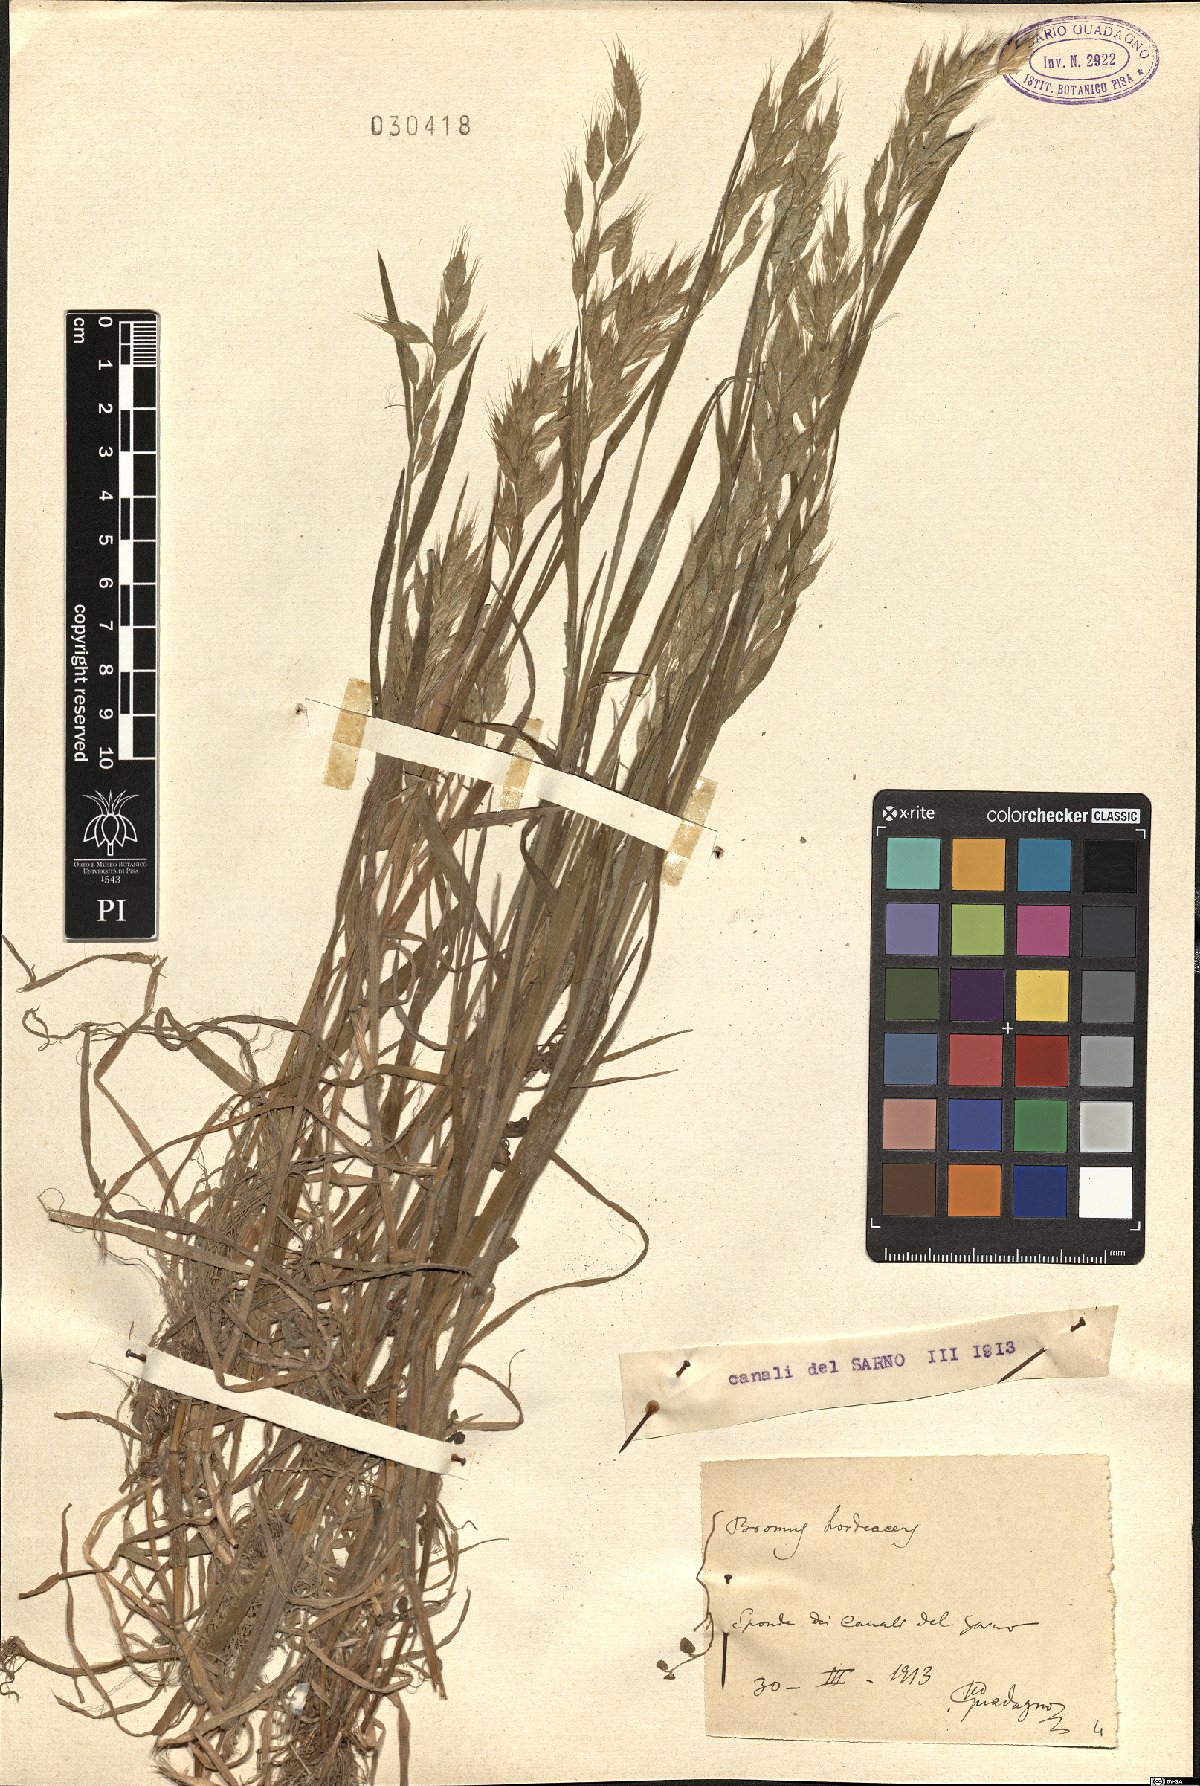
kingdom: Plantae
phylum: Tracheophyta
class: Liliopsida
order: Poales
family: Poaceae
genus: Bromus
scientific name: Bromus hordeaceus
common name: Soft brome
